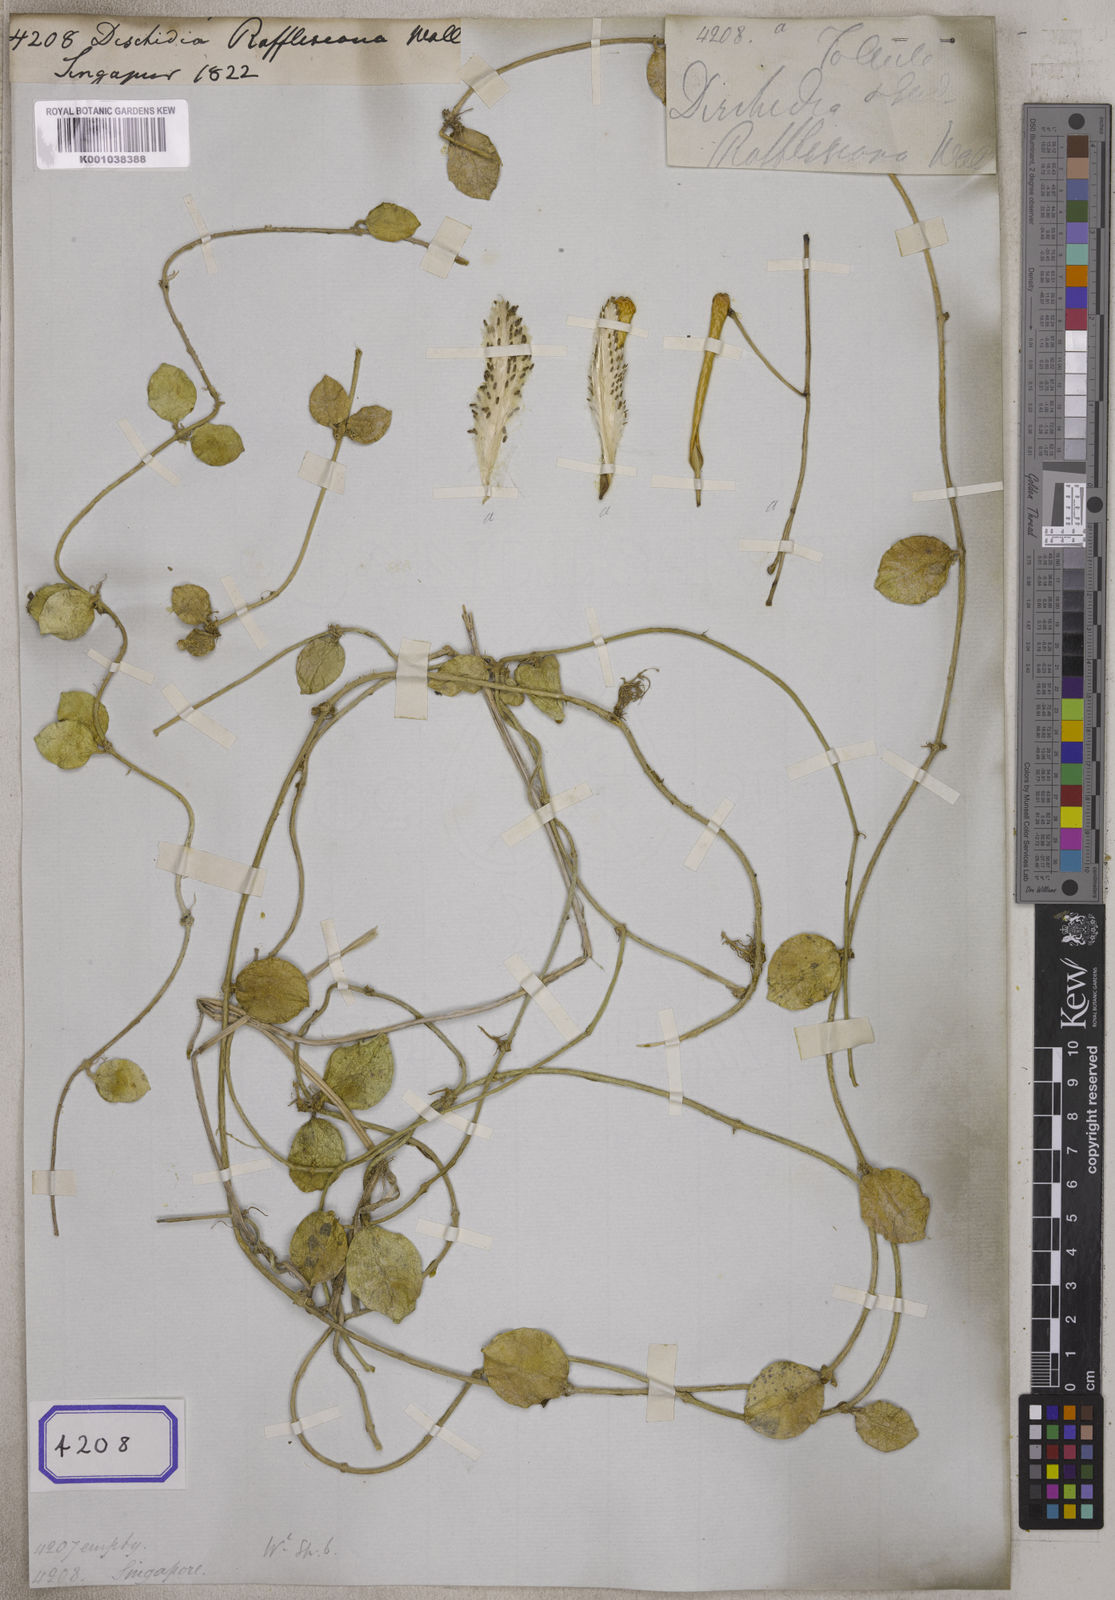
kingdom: Plantae
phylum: Tracheophyta
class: Magnoliopsida
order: Gentianales
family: Apocynaceae
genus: Dischidia
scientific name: Dischidia major
